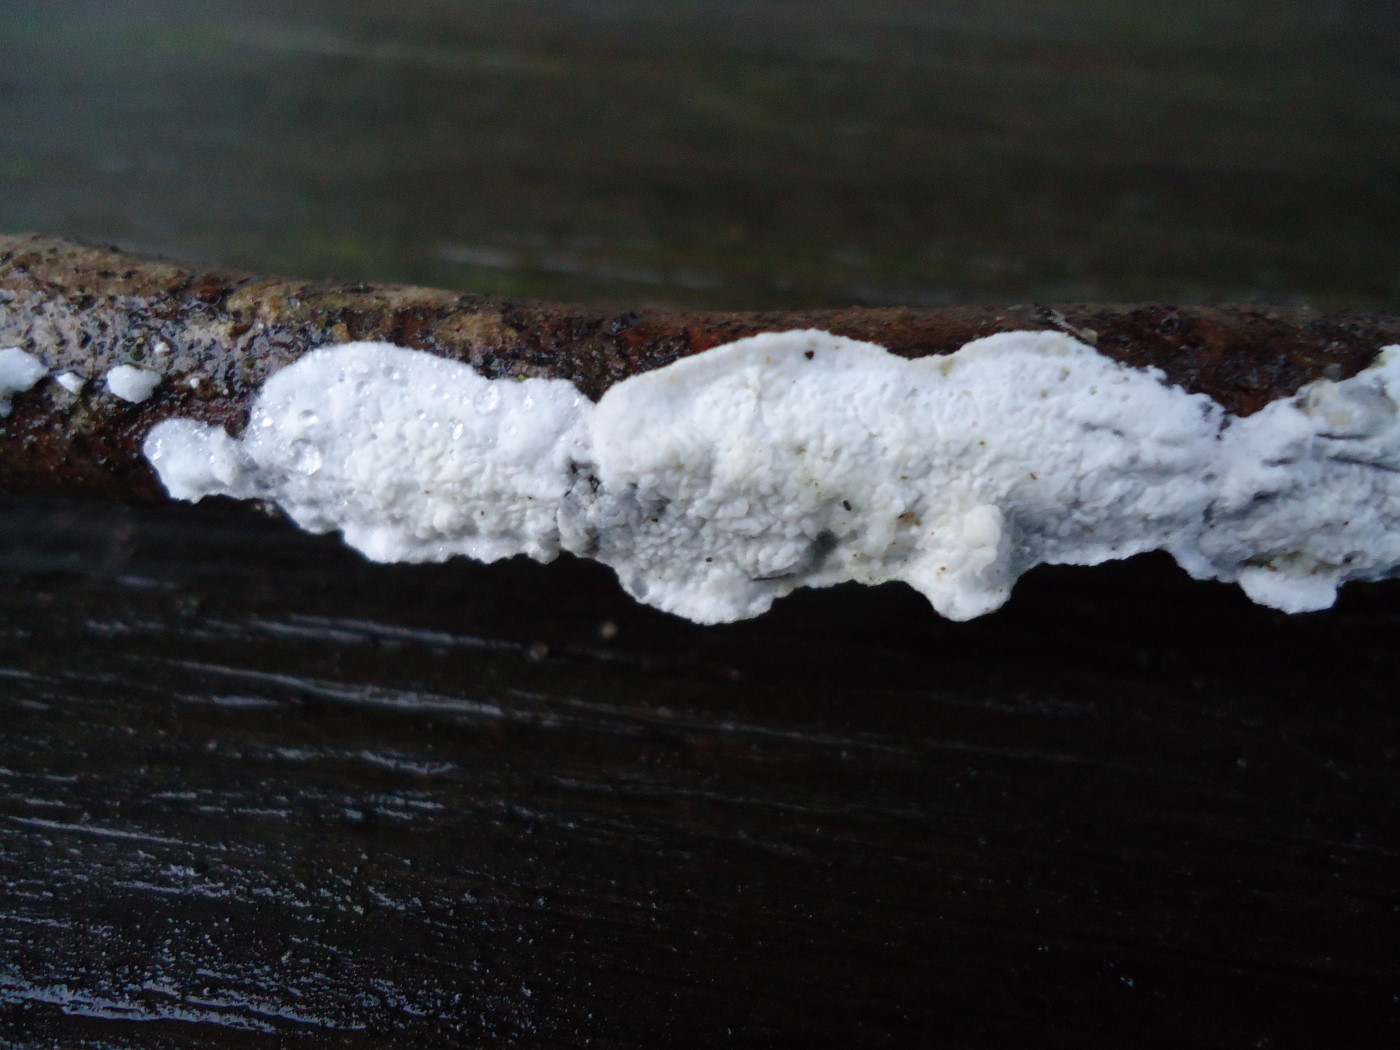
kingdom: Fungi
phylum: Basidiomycota
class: Agaricomycetes
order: Polyporales
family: Irpicaceae
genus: Byssomerulius
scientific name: Byssomerulius corium
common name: læder-åresvamp
